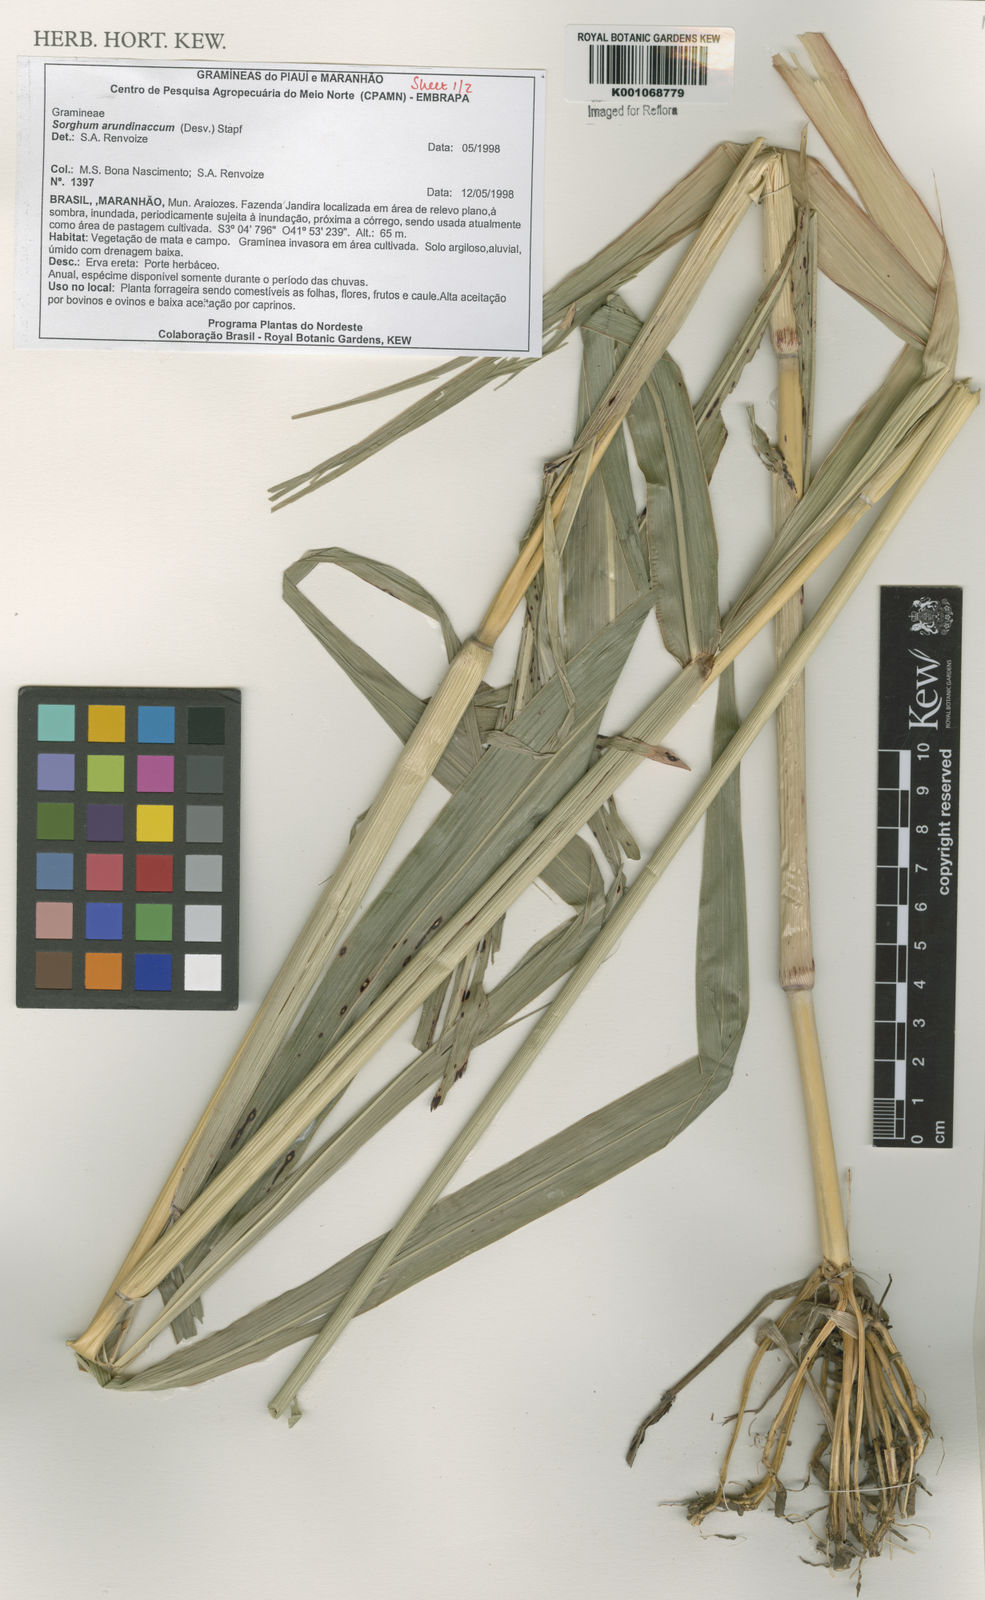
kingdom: Plantae
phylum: Tracheophyta
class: Liliopsida
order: Poales
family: Poaceae
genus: Sorghum
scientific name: Sorghum arundinaceum
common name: Sorghum
